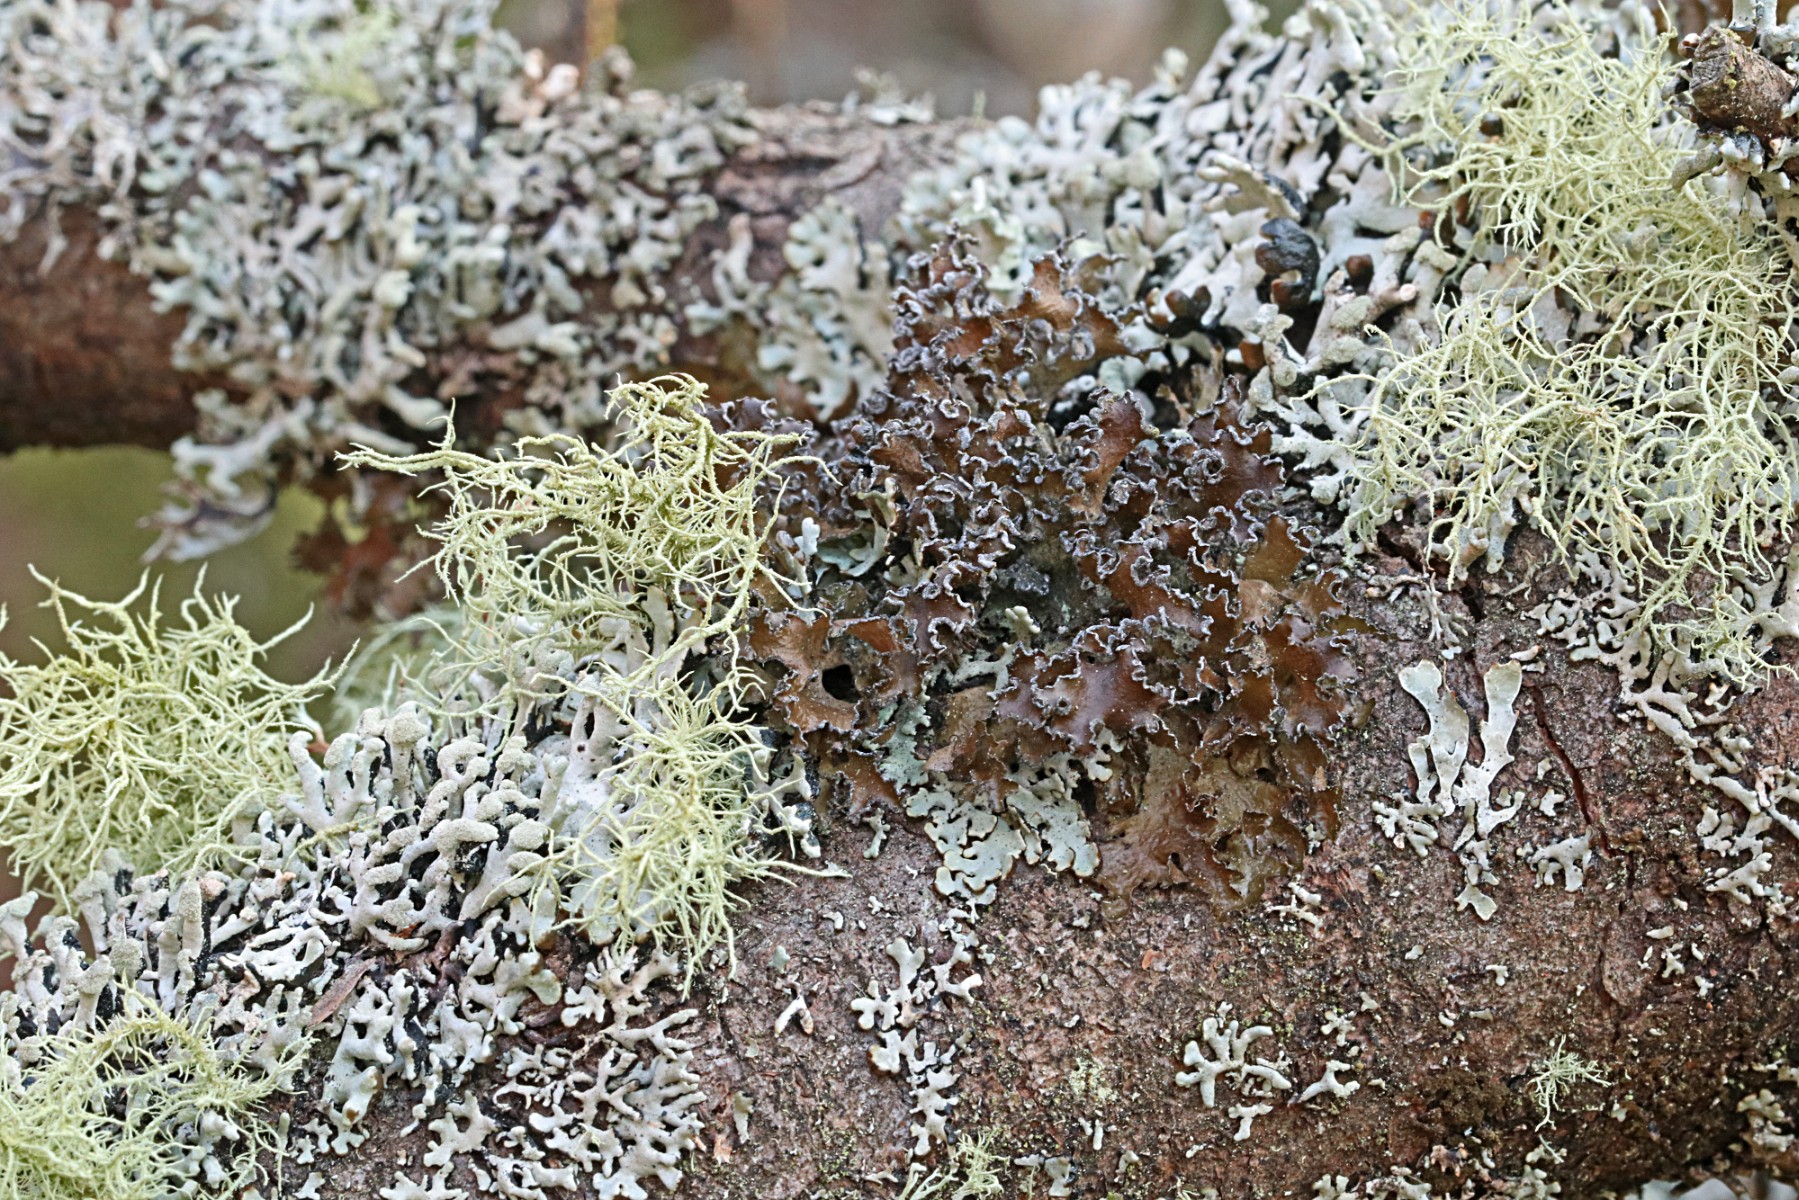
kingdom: Fungi
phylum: Ascomycota
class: Lecanoromycetes
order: Lecanorales
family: Parmeliaceae
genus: Nephromopsis
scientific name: Nephromopsis chlorophylla
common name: olivenbrun kruslav
